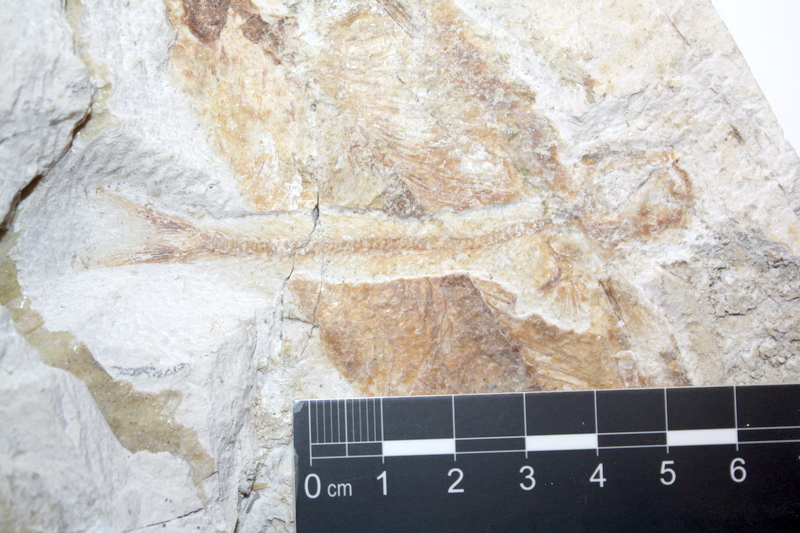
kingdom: Animalia
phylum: Chordata
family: Ascalaboidae
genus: Tharsis
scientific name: Tharsis dubius
